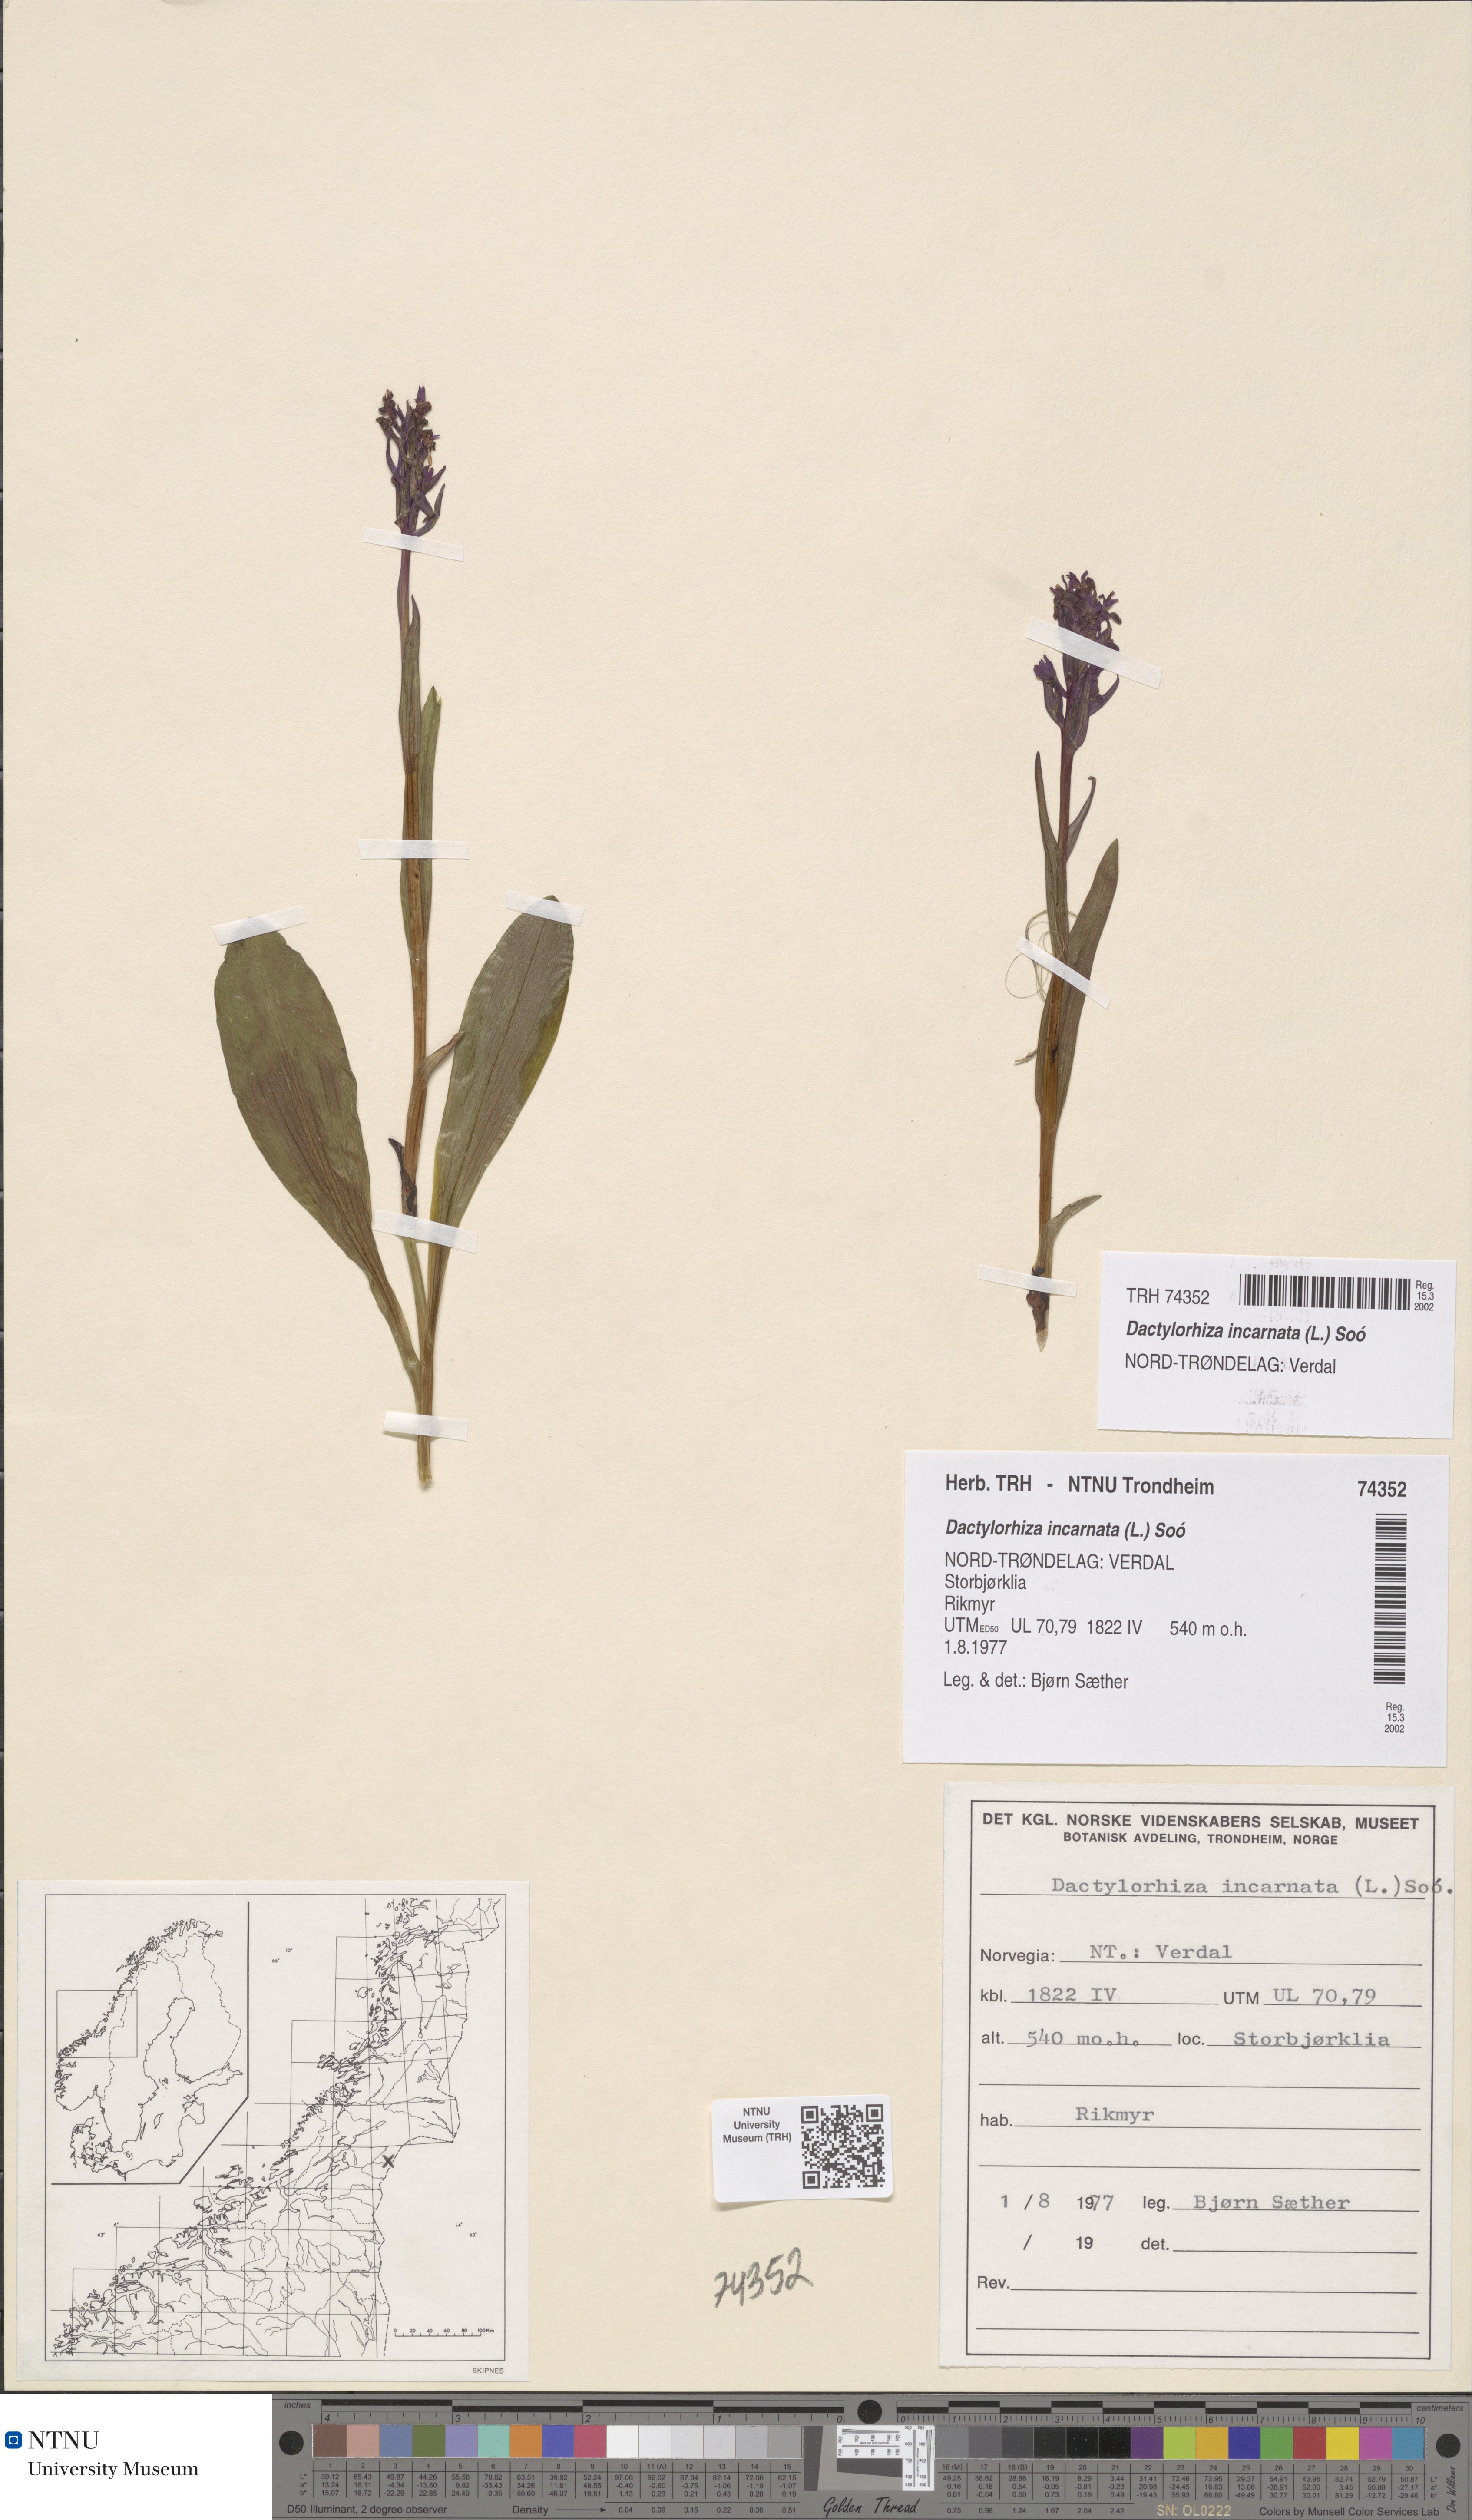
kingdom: Plantae
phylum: Tracheophyta
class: Liliopsida
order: Asparagales
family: Orchidaceae
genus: Dactylorhiza
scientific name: Dactylorhiza incarnata
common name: Early marsh-orchid
